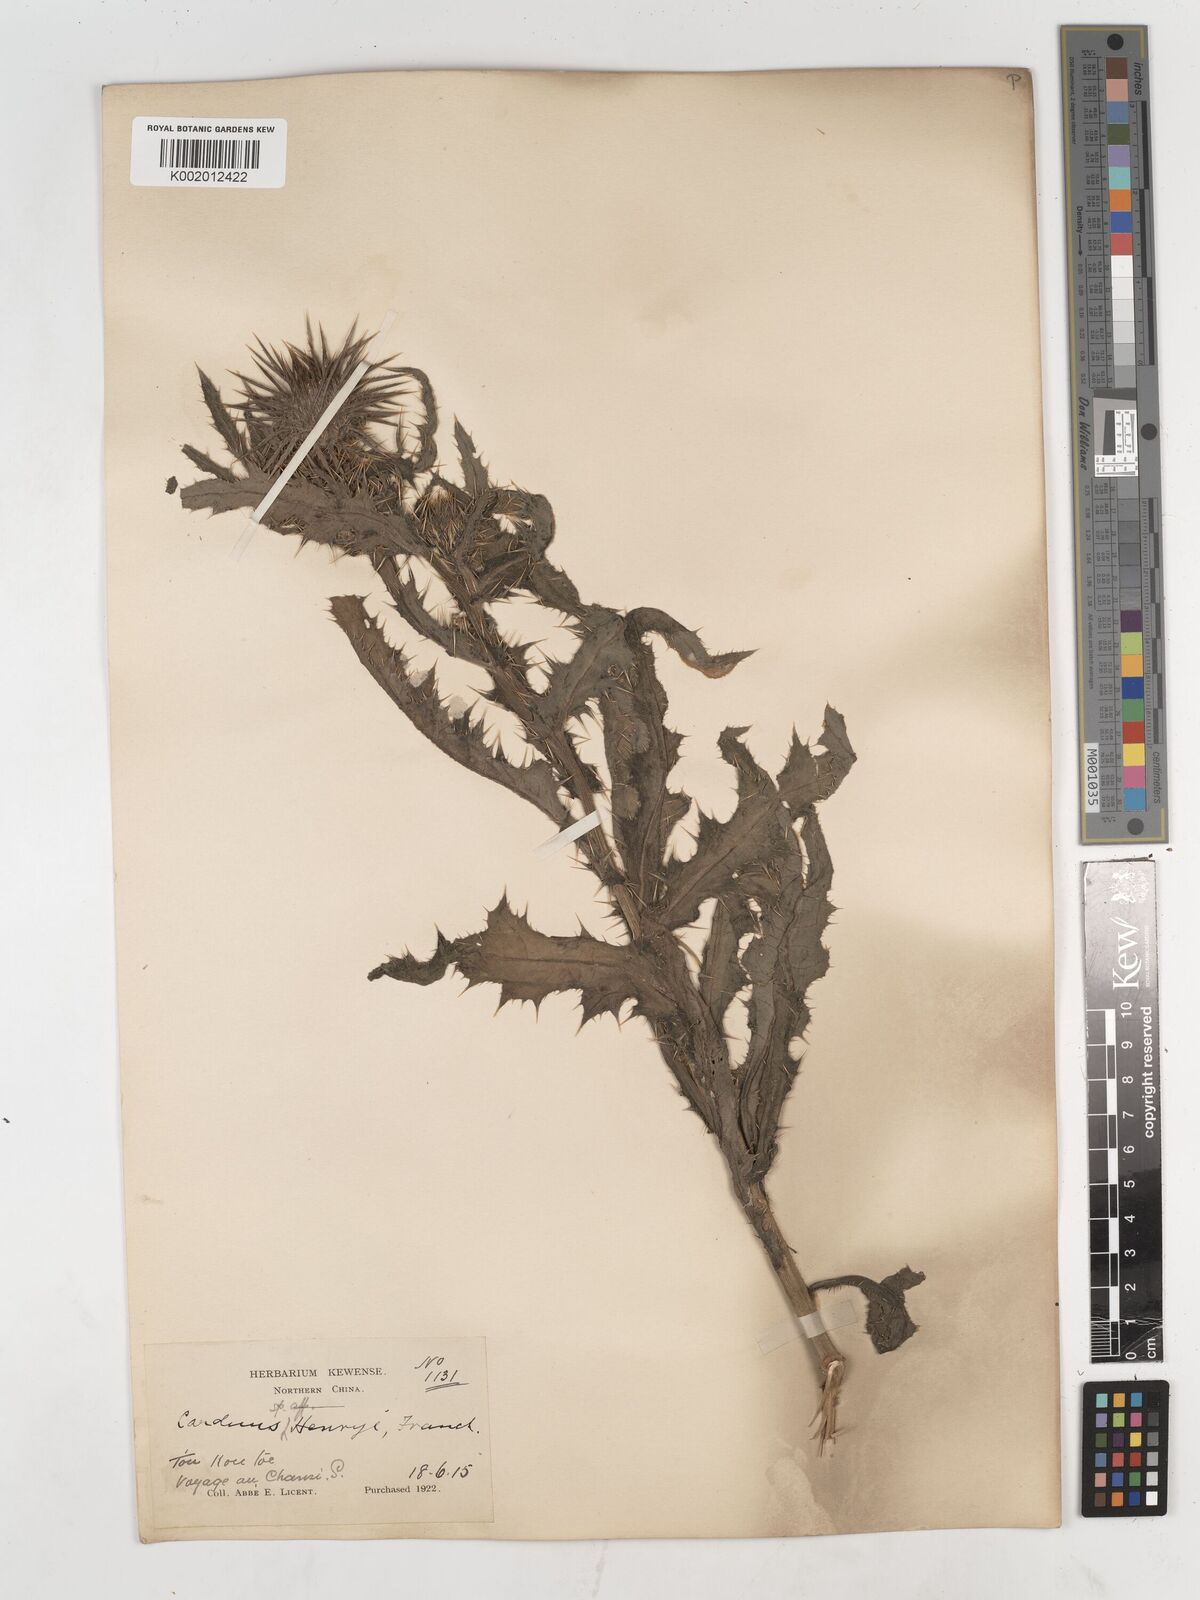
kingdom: Plantae
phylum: Tracheophyta
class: Magnoliopsida
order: Asterales
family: Asteraceae
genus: Cirsium
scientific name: Cirsium henryi
